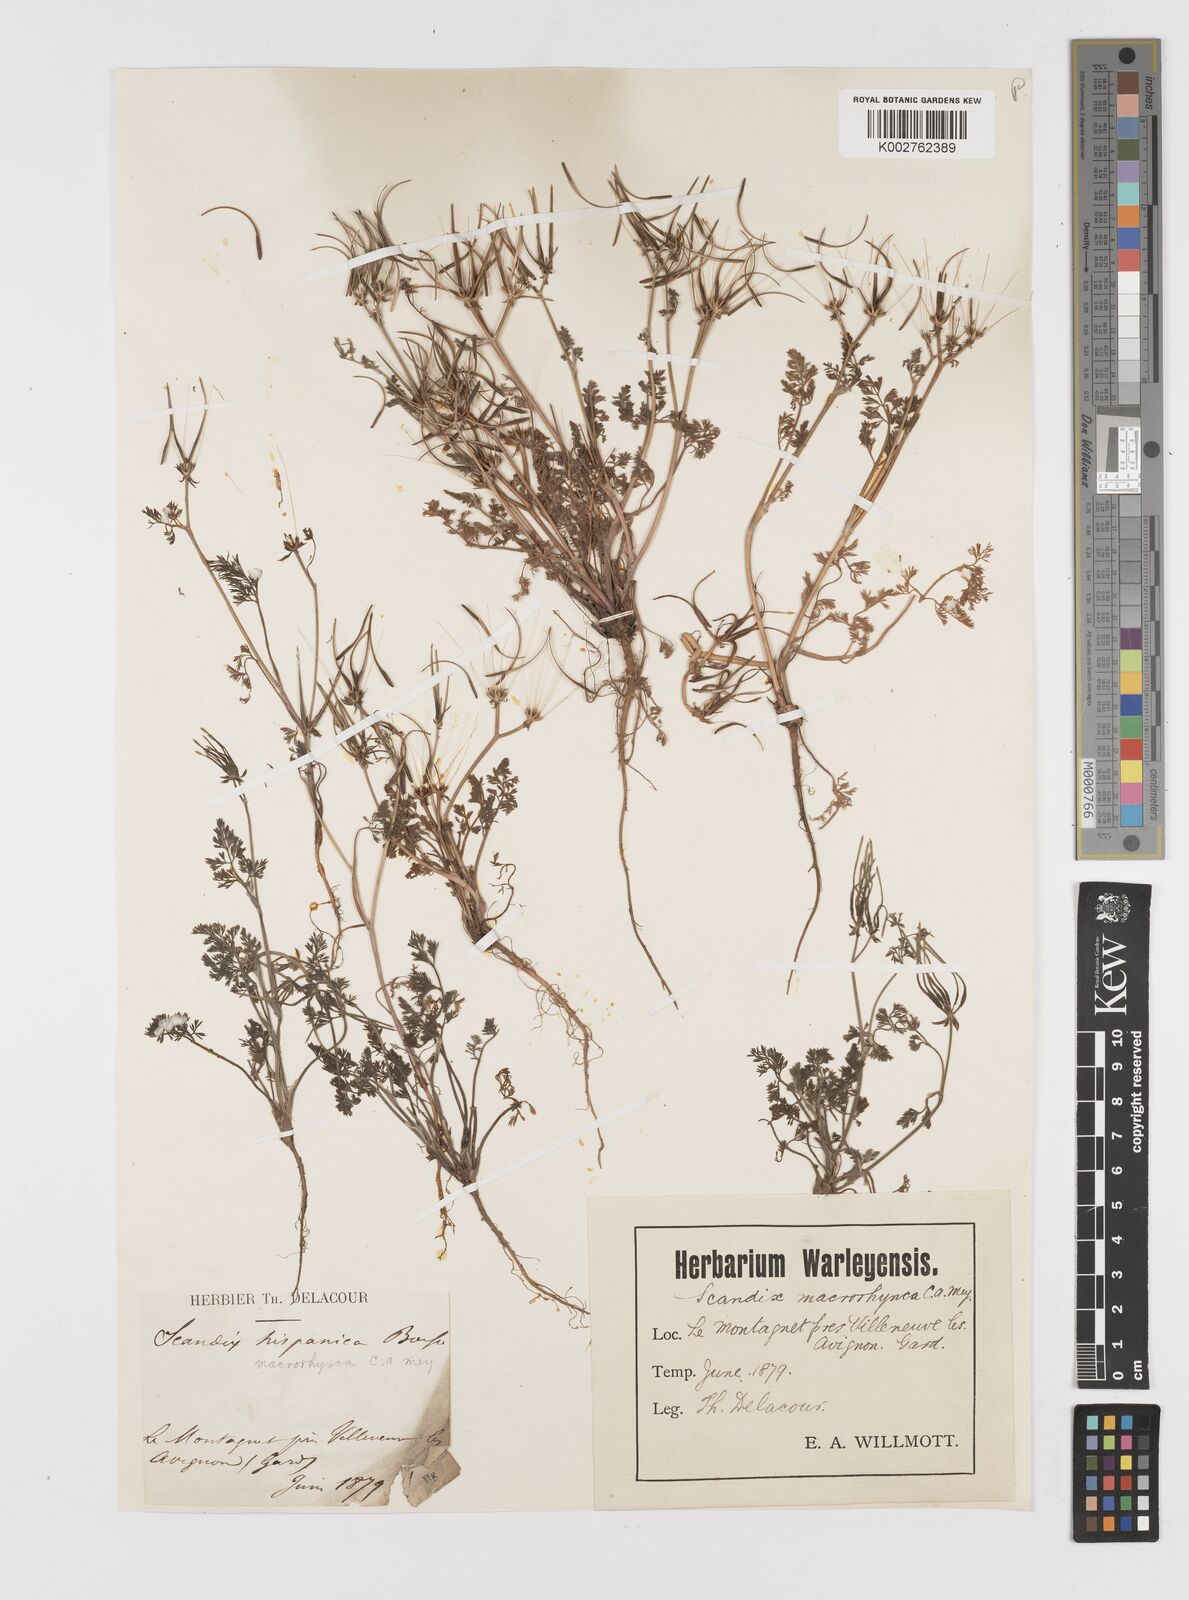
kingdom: Plantae
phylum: Tracheophyta
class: Magnoliopsida
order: Apiales
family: Apiaceae
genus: Scandix
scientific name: Scandix pecten-veneris
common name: Shepherd's-needle
